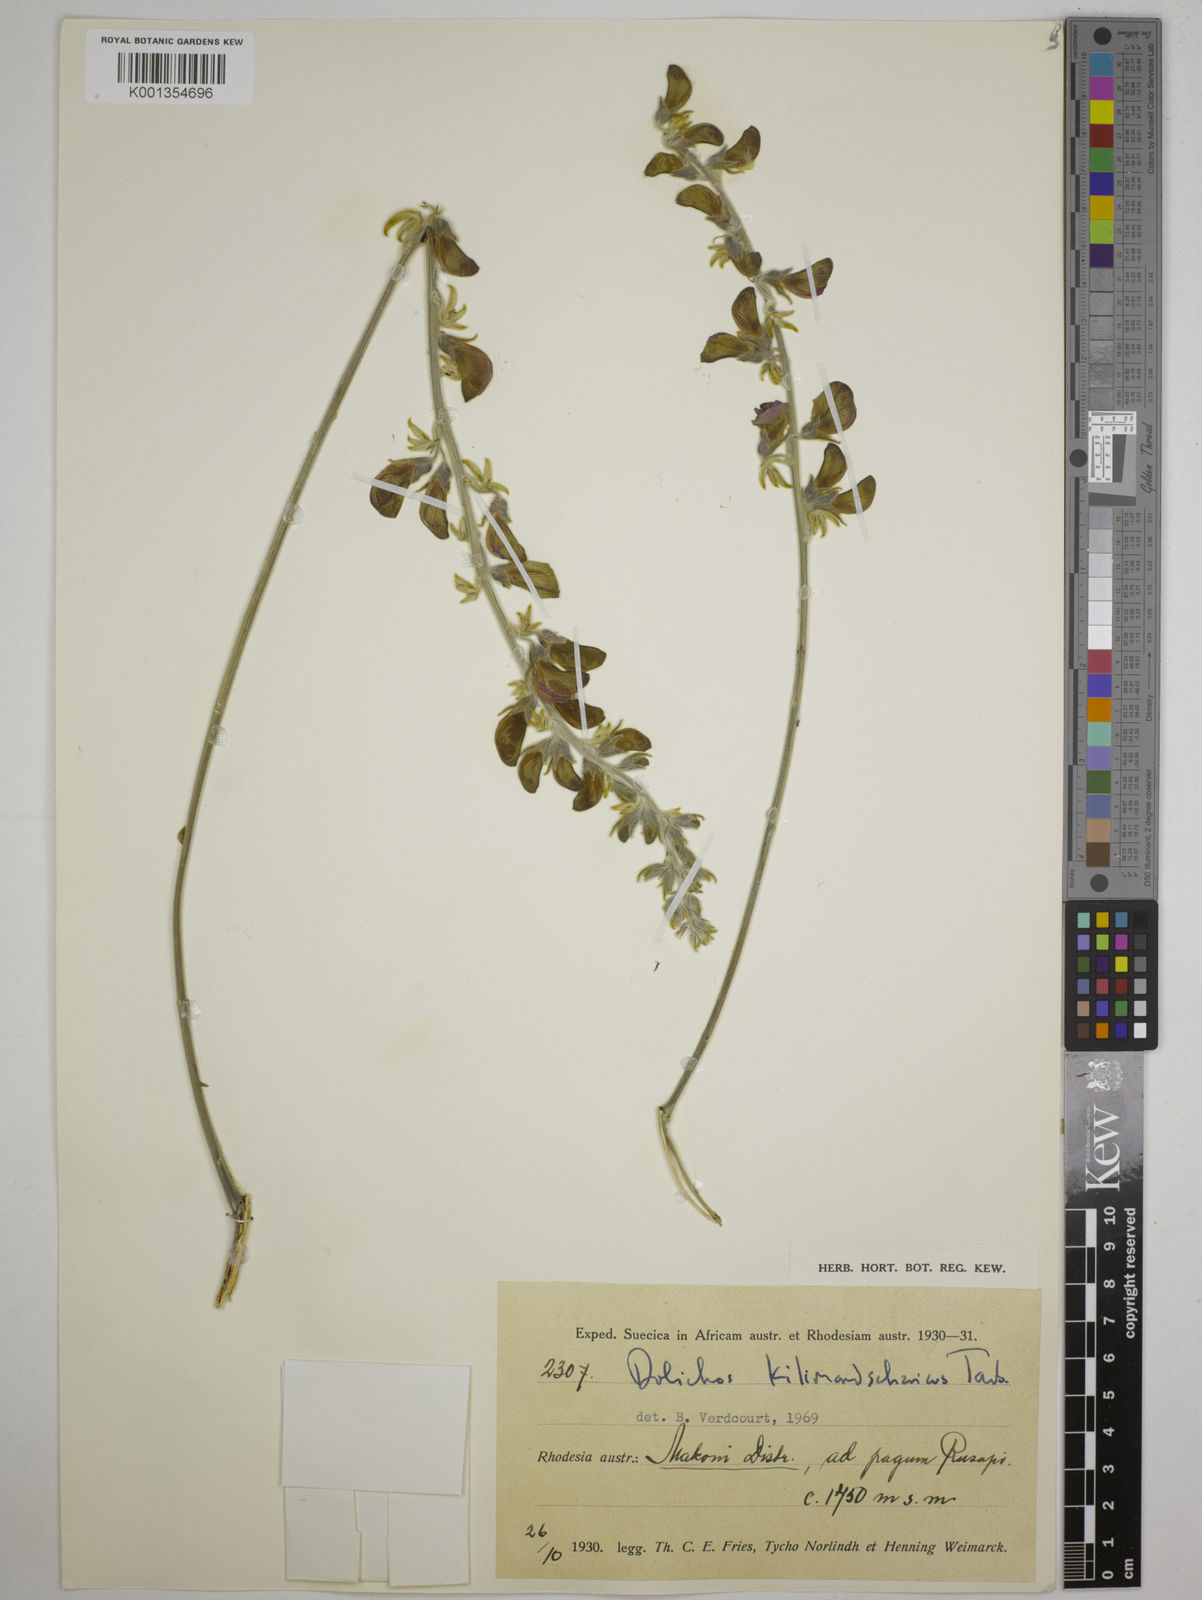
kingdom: Plantae
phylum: Tracheophyta
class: Magnoliopsida
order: Fabales
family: Fabaceae
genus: Dolichos
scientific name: Dolichos kilimandscharicus
